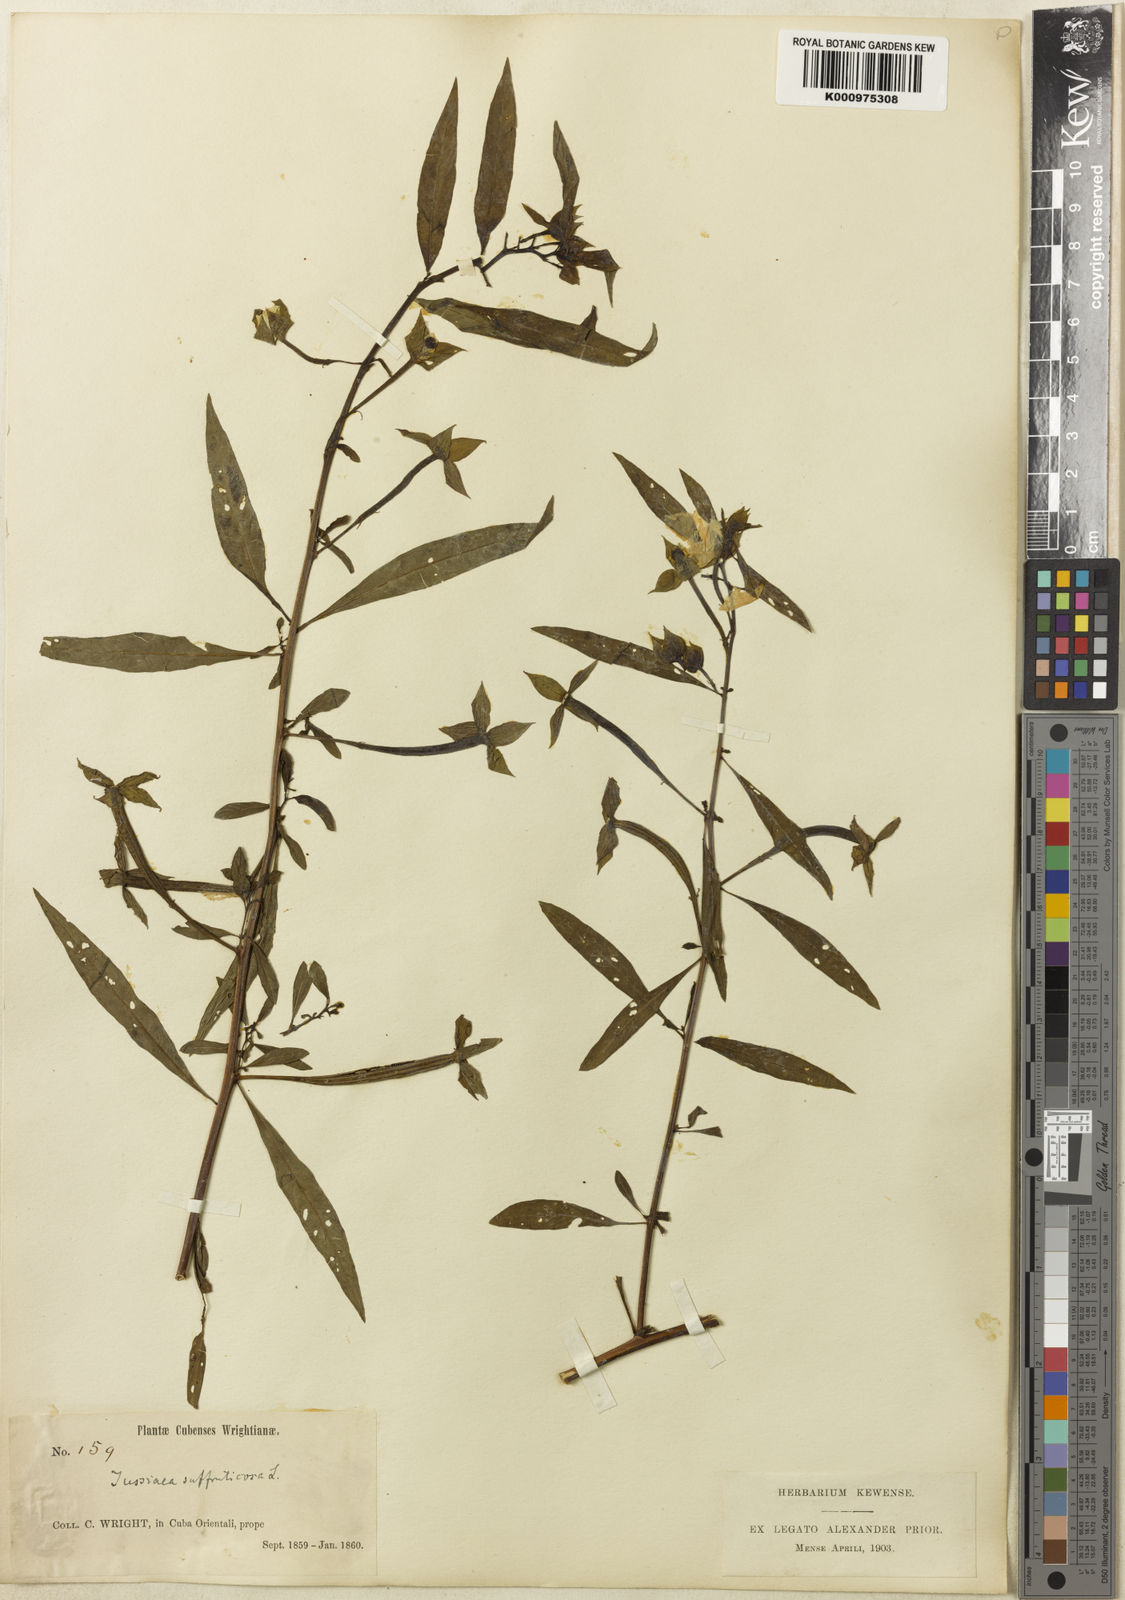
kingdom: Plantae
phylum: Tracheophyta
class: Magnoliopsida
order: Myrtales
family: Onagraceae
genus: Ludwigia
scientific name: Ludwigia octovalvis
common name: Water-primrose
